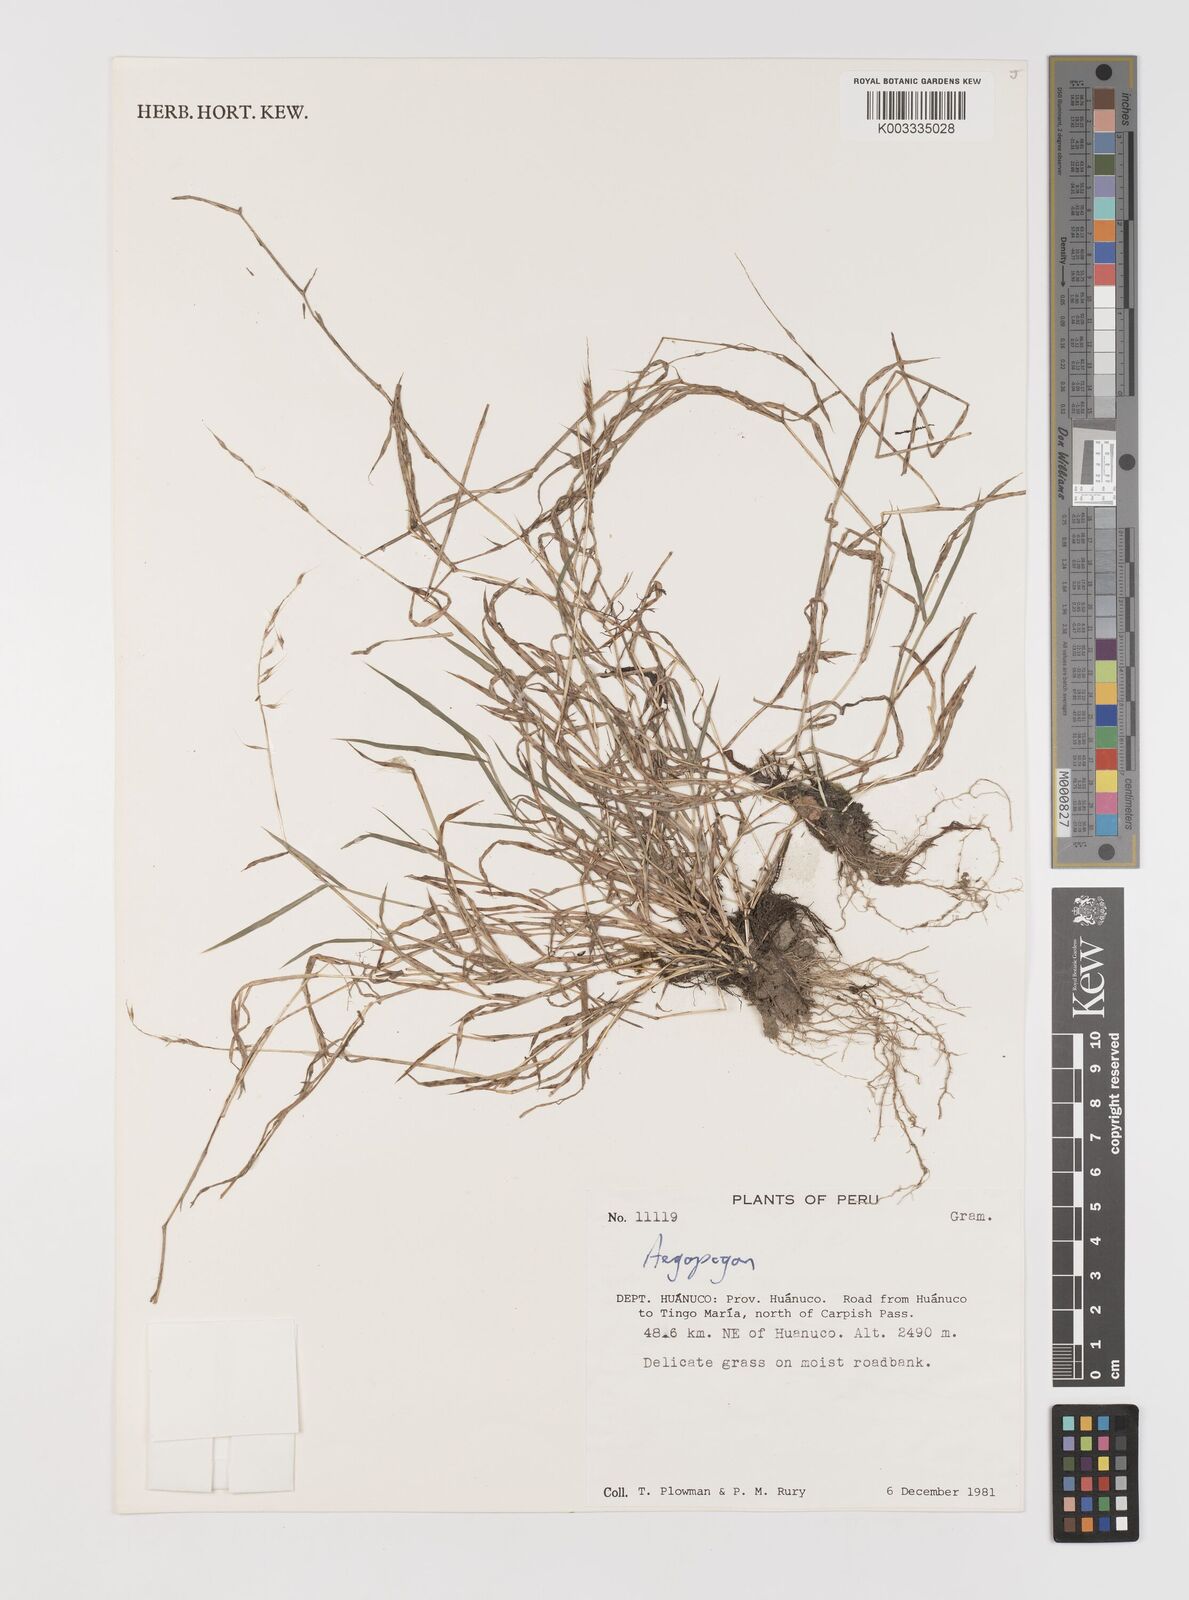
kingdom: Plantae
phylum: Tracheophyta
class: Liliopsida
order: Poales
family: Poaceae
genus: Muhlenbergia
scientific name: Muhlenbergia cenchroides
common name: Relaxgrass
